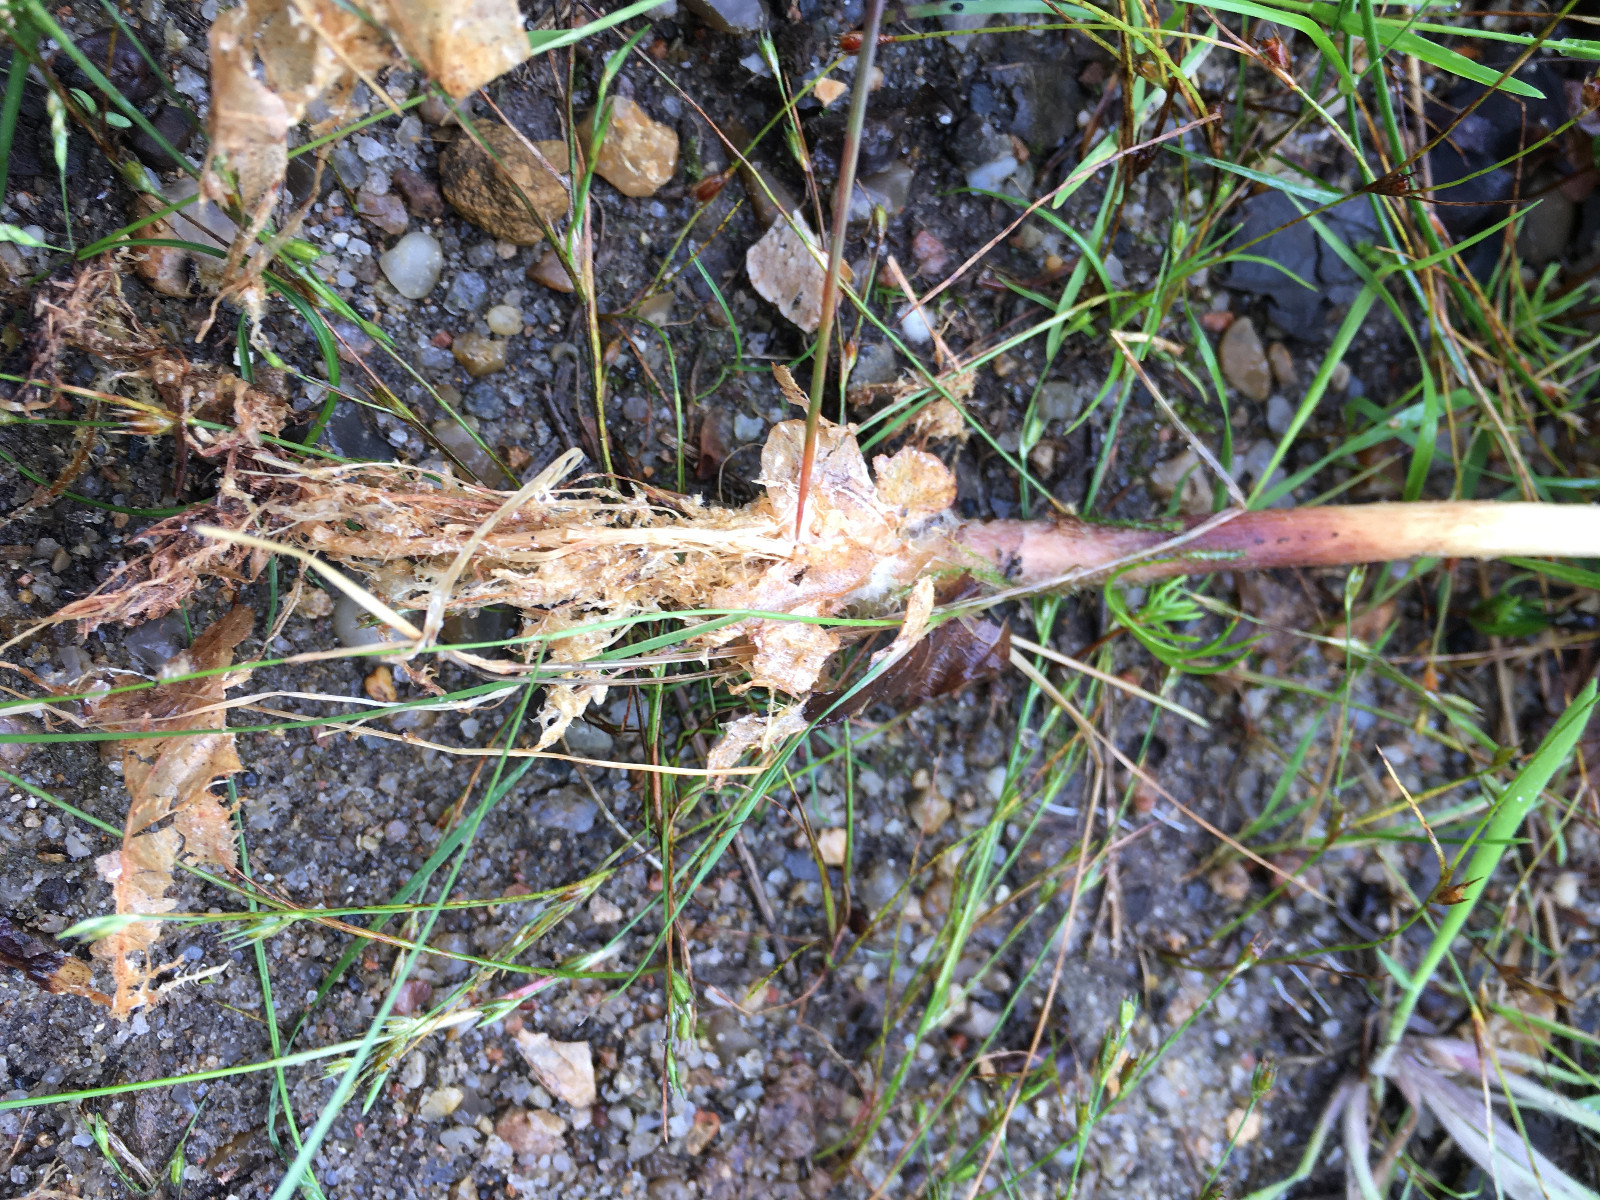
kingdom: Fungi
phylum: Basidiomycota
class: Agaricomycetes
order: Agaricales
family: Omphalotaceae
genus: Gymnopus
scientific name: Gymnopus
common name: fladhat
